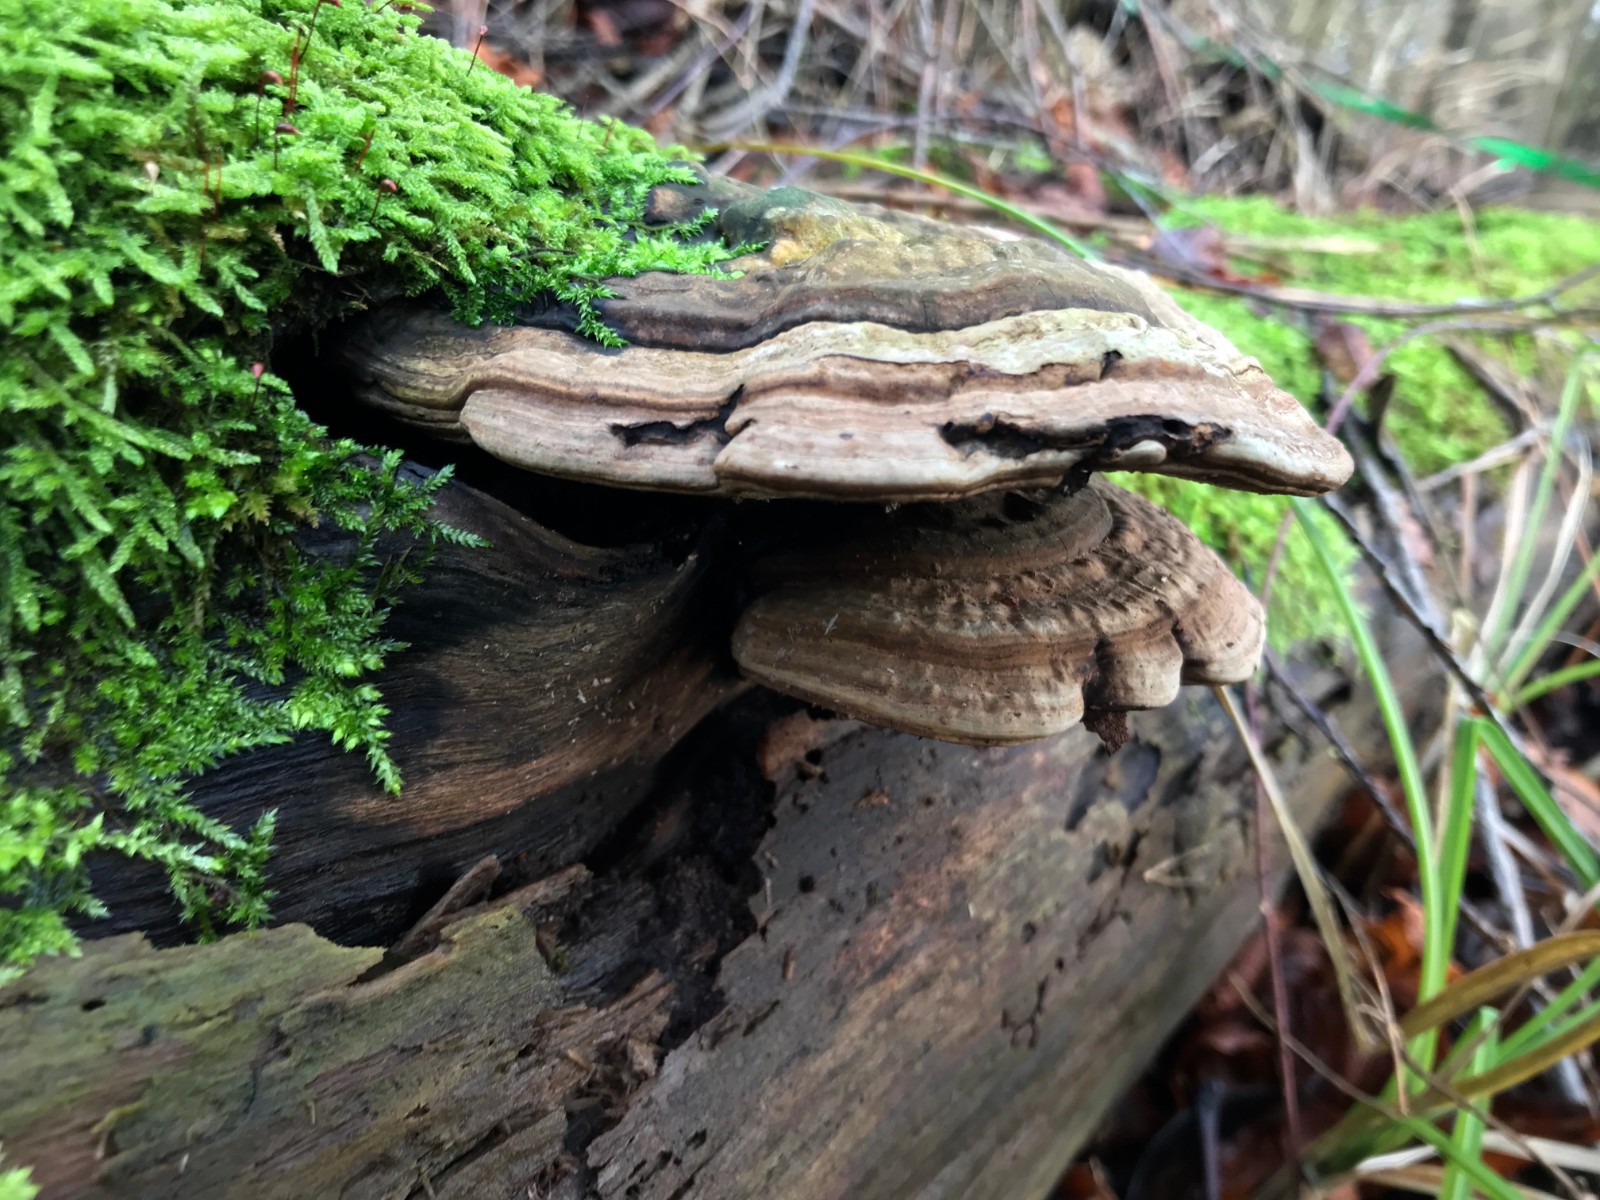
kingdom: Fungi
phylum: Basidiomycota
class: Agaricomycetes
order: Polyporales
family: Polyporaceae
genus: Ganoderma
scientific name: Ganoderma applanatum
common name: flad lakporesvamp
